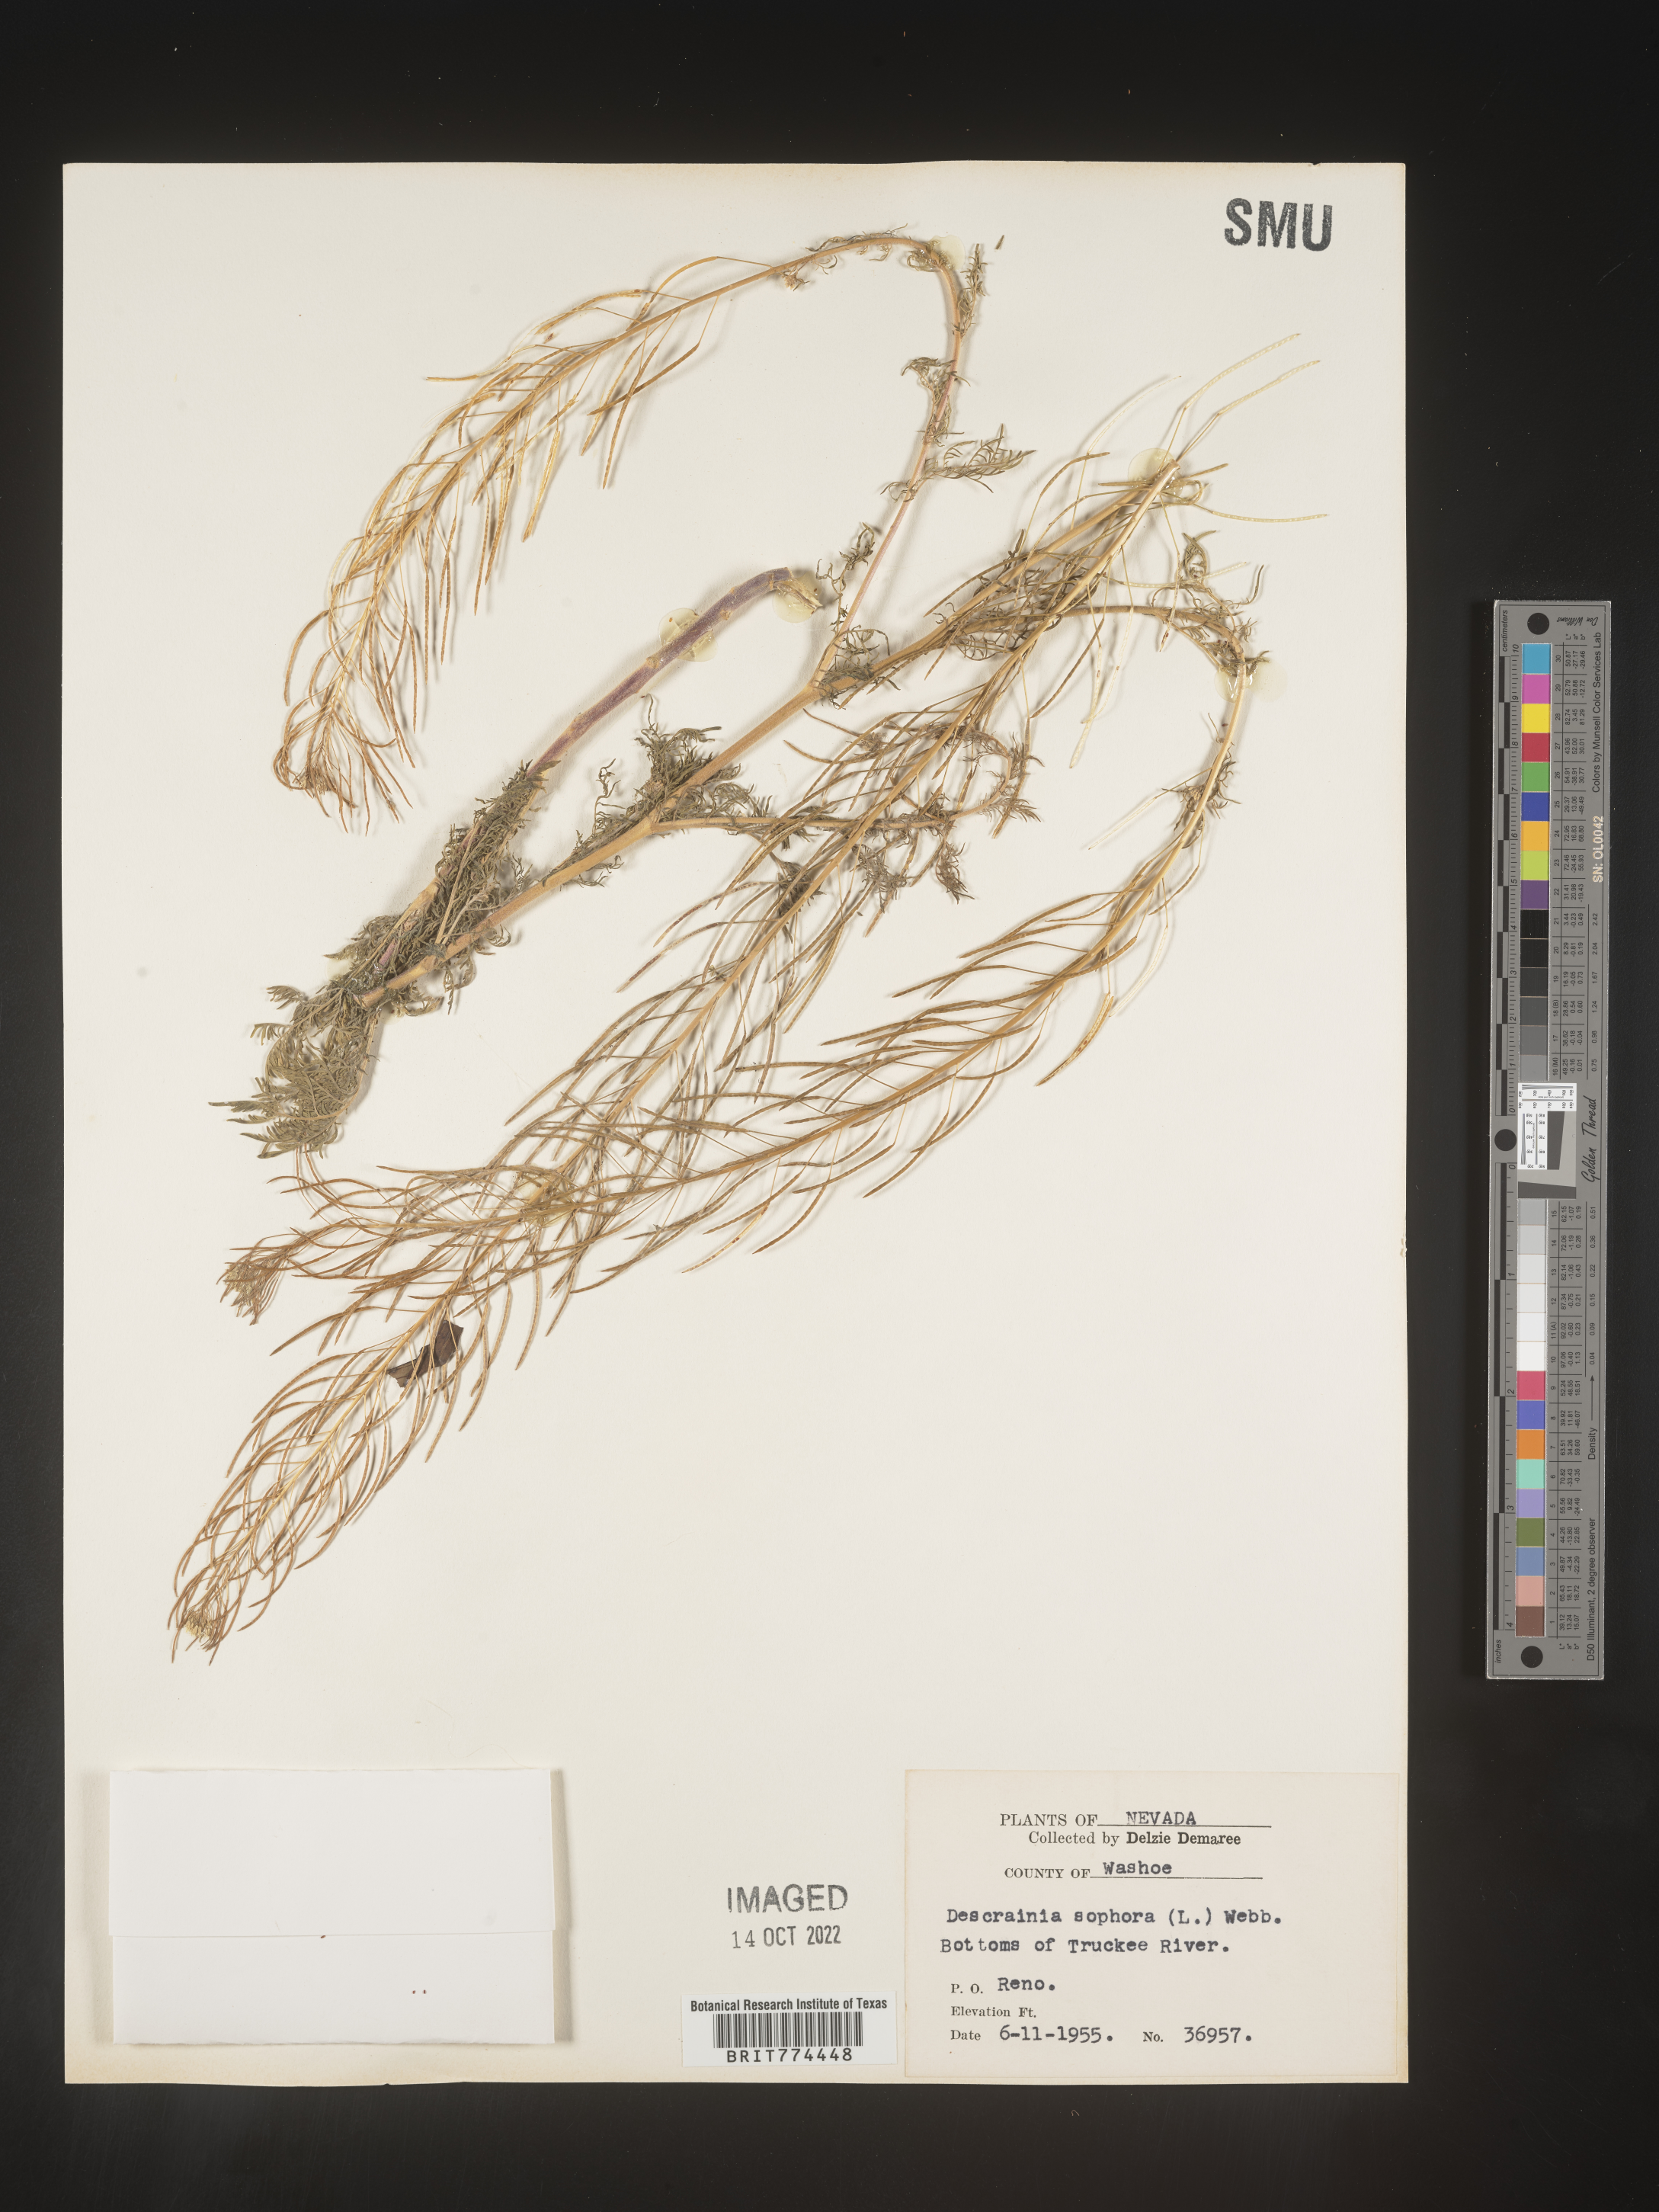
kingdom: Plantae
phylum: Tracheophyta
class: Magnoliopsida
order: Brassicales
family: Brassicaceae
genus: Descurainia
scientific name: Descurainia sophia
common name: Flixweed
